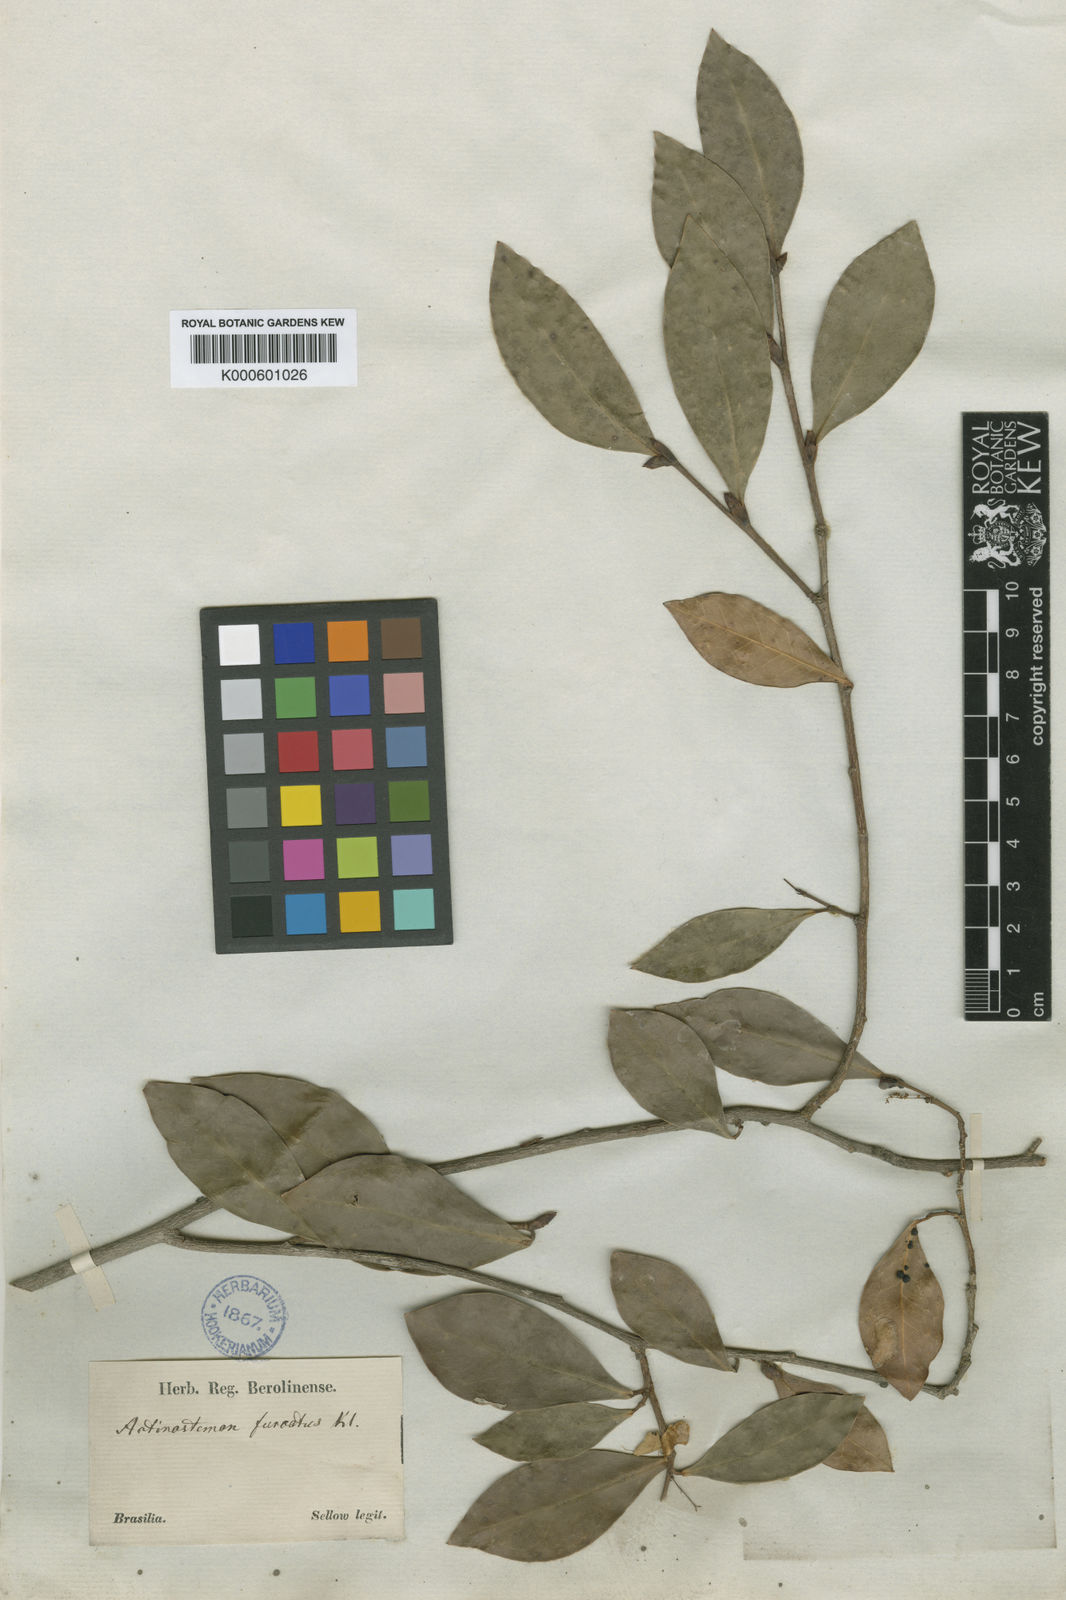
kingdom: Plantae
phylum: Tracheophyta
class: Magnoliopsida
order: Malpighiales
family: Euphorbiaceae
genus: Actinostemon
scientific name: Actinostemon
